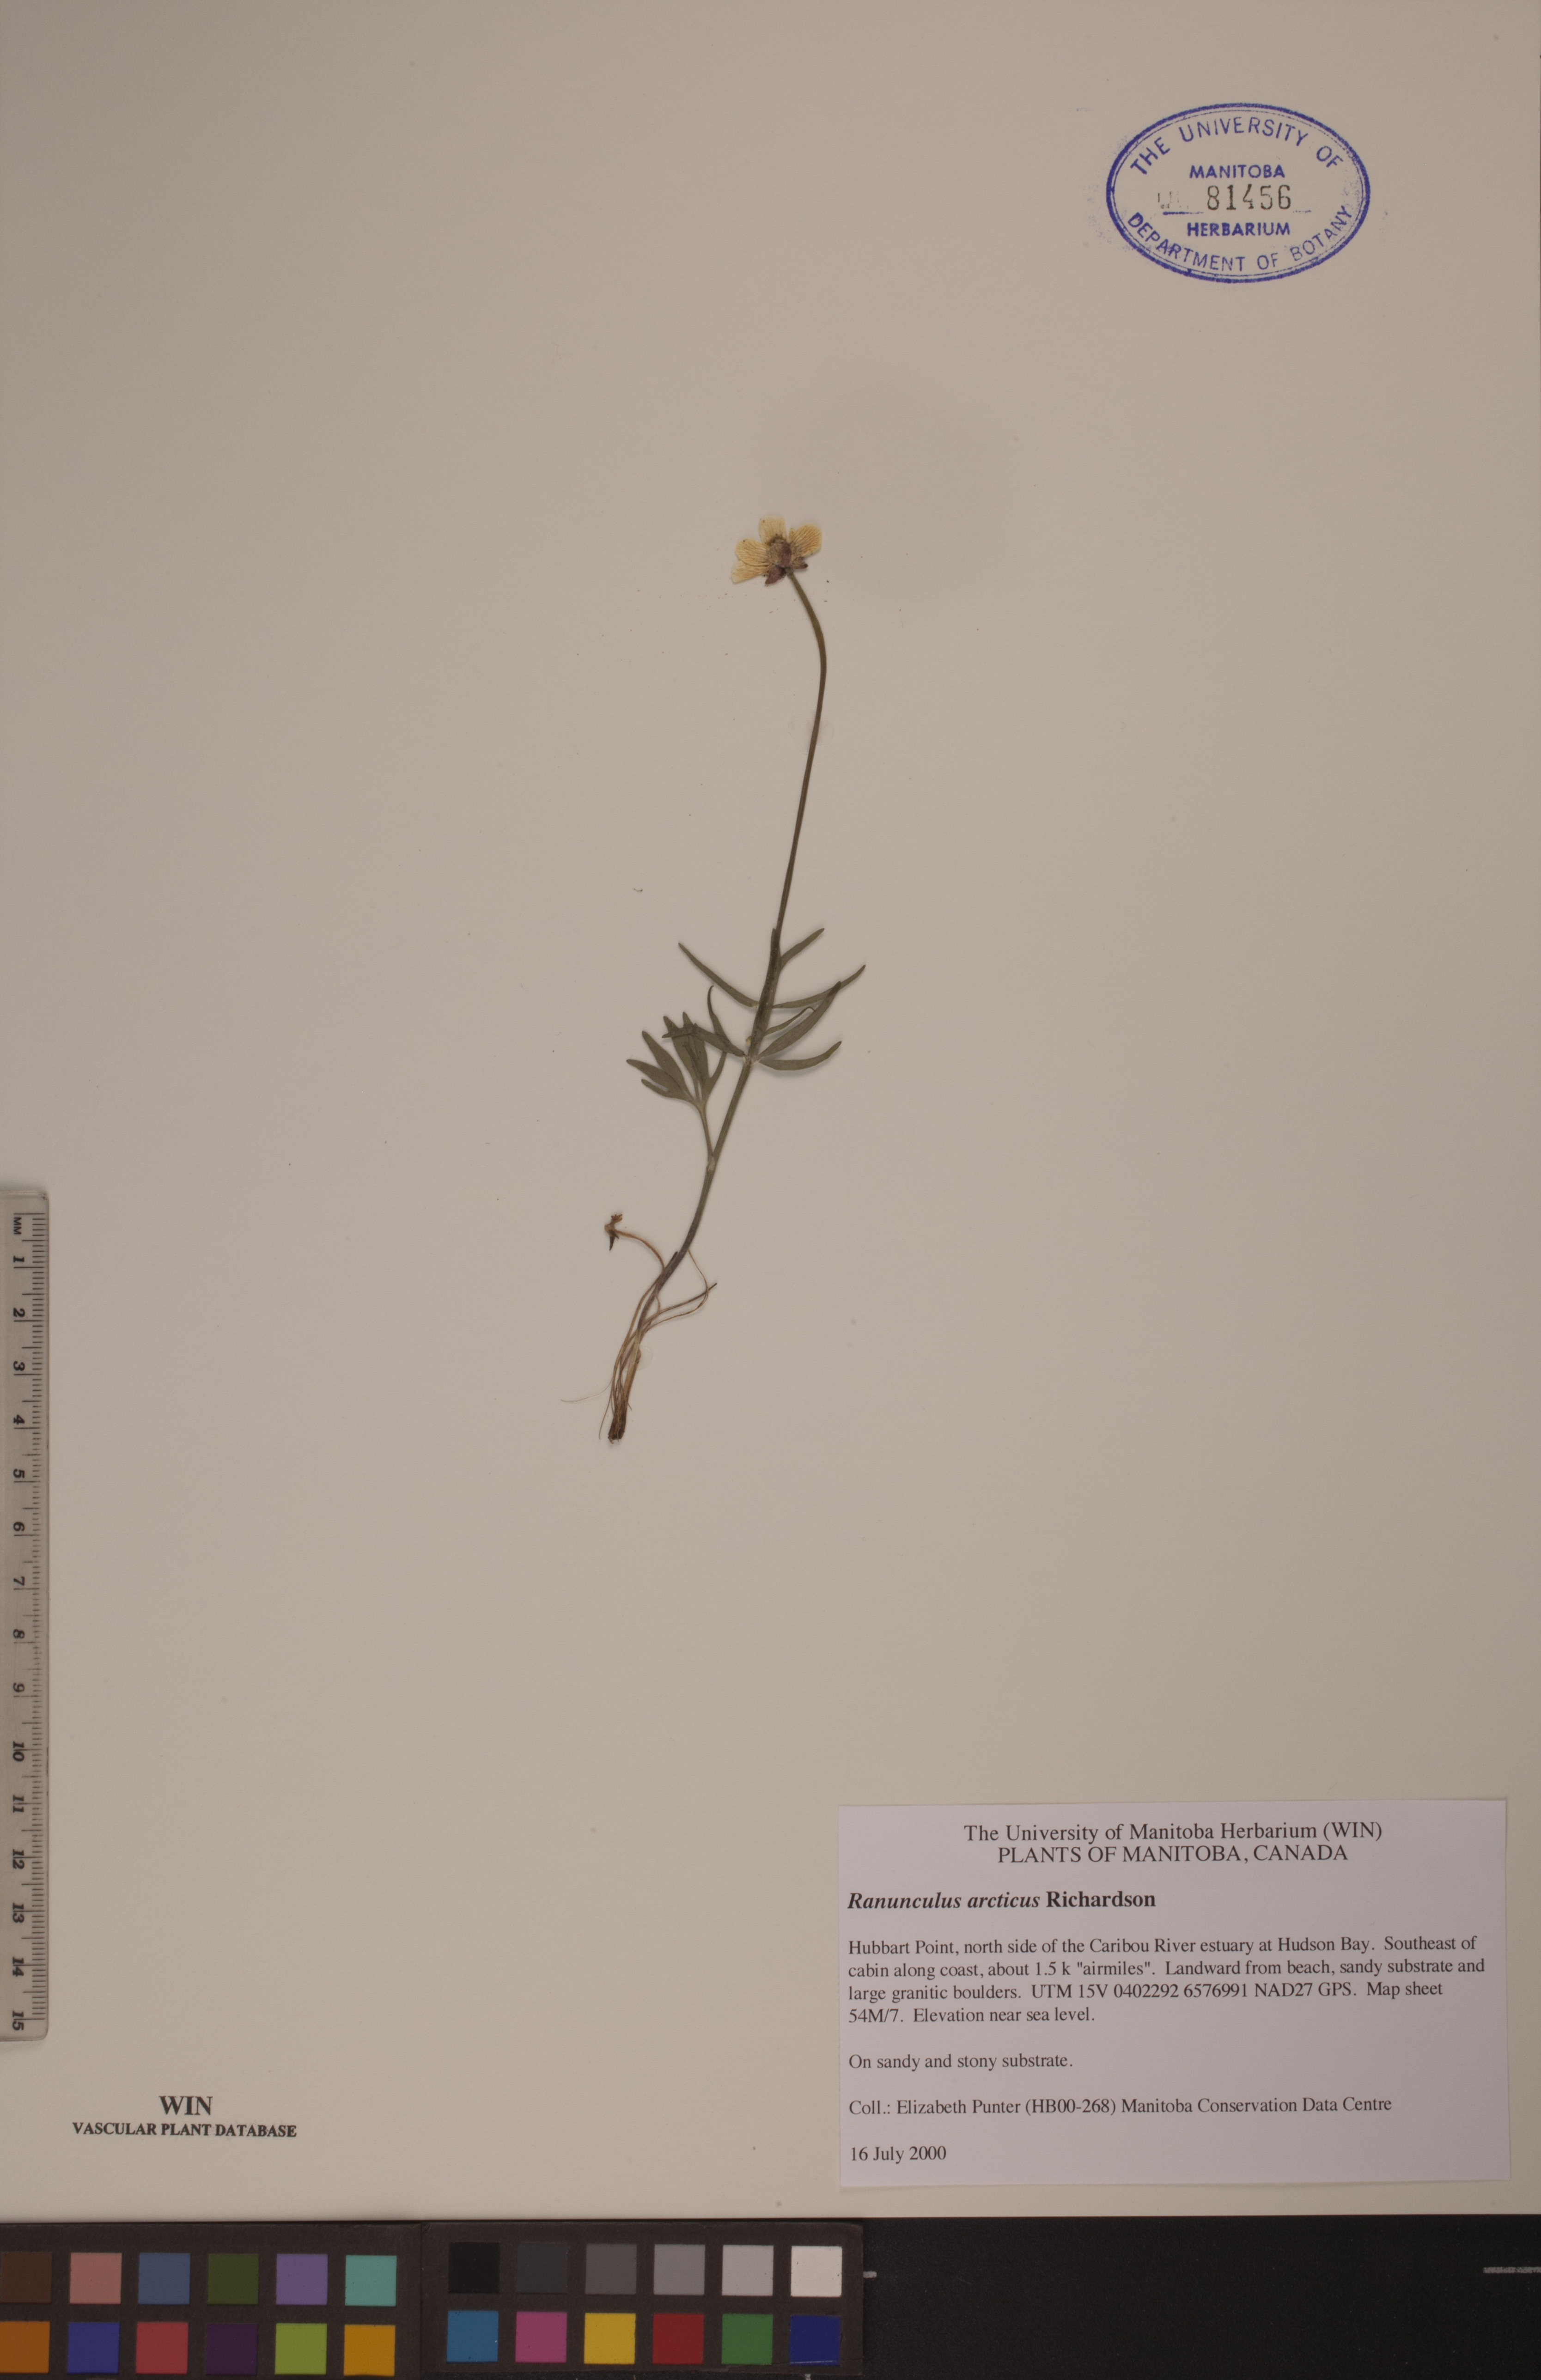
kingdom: Plantae
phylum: Tracheophyta
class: Magnoliopsida
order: Ranunculales
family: Ranunculaceae
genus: Ranunculus
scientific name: Ranunculus arcticus
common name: Bird's-foot buttercup
